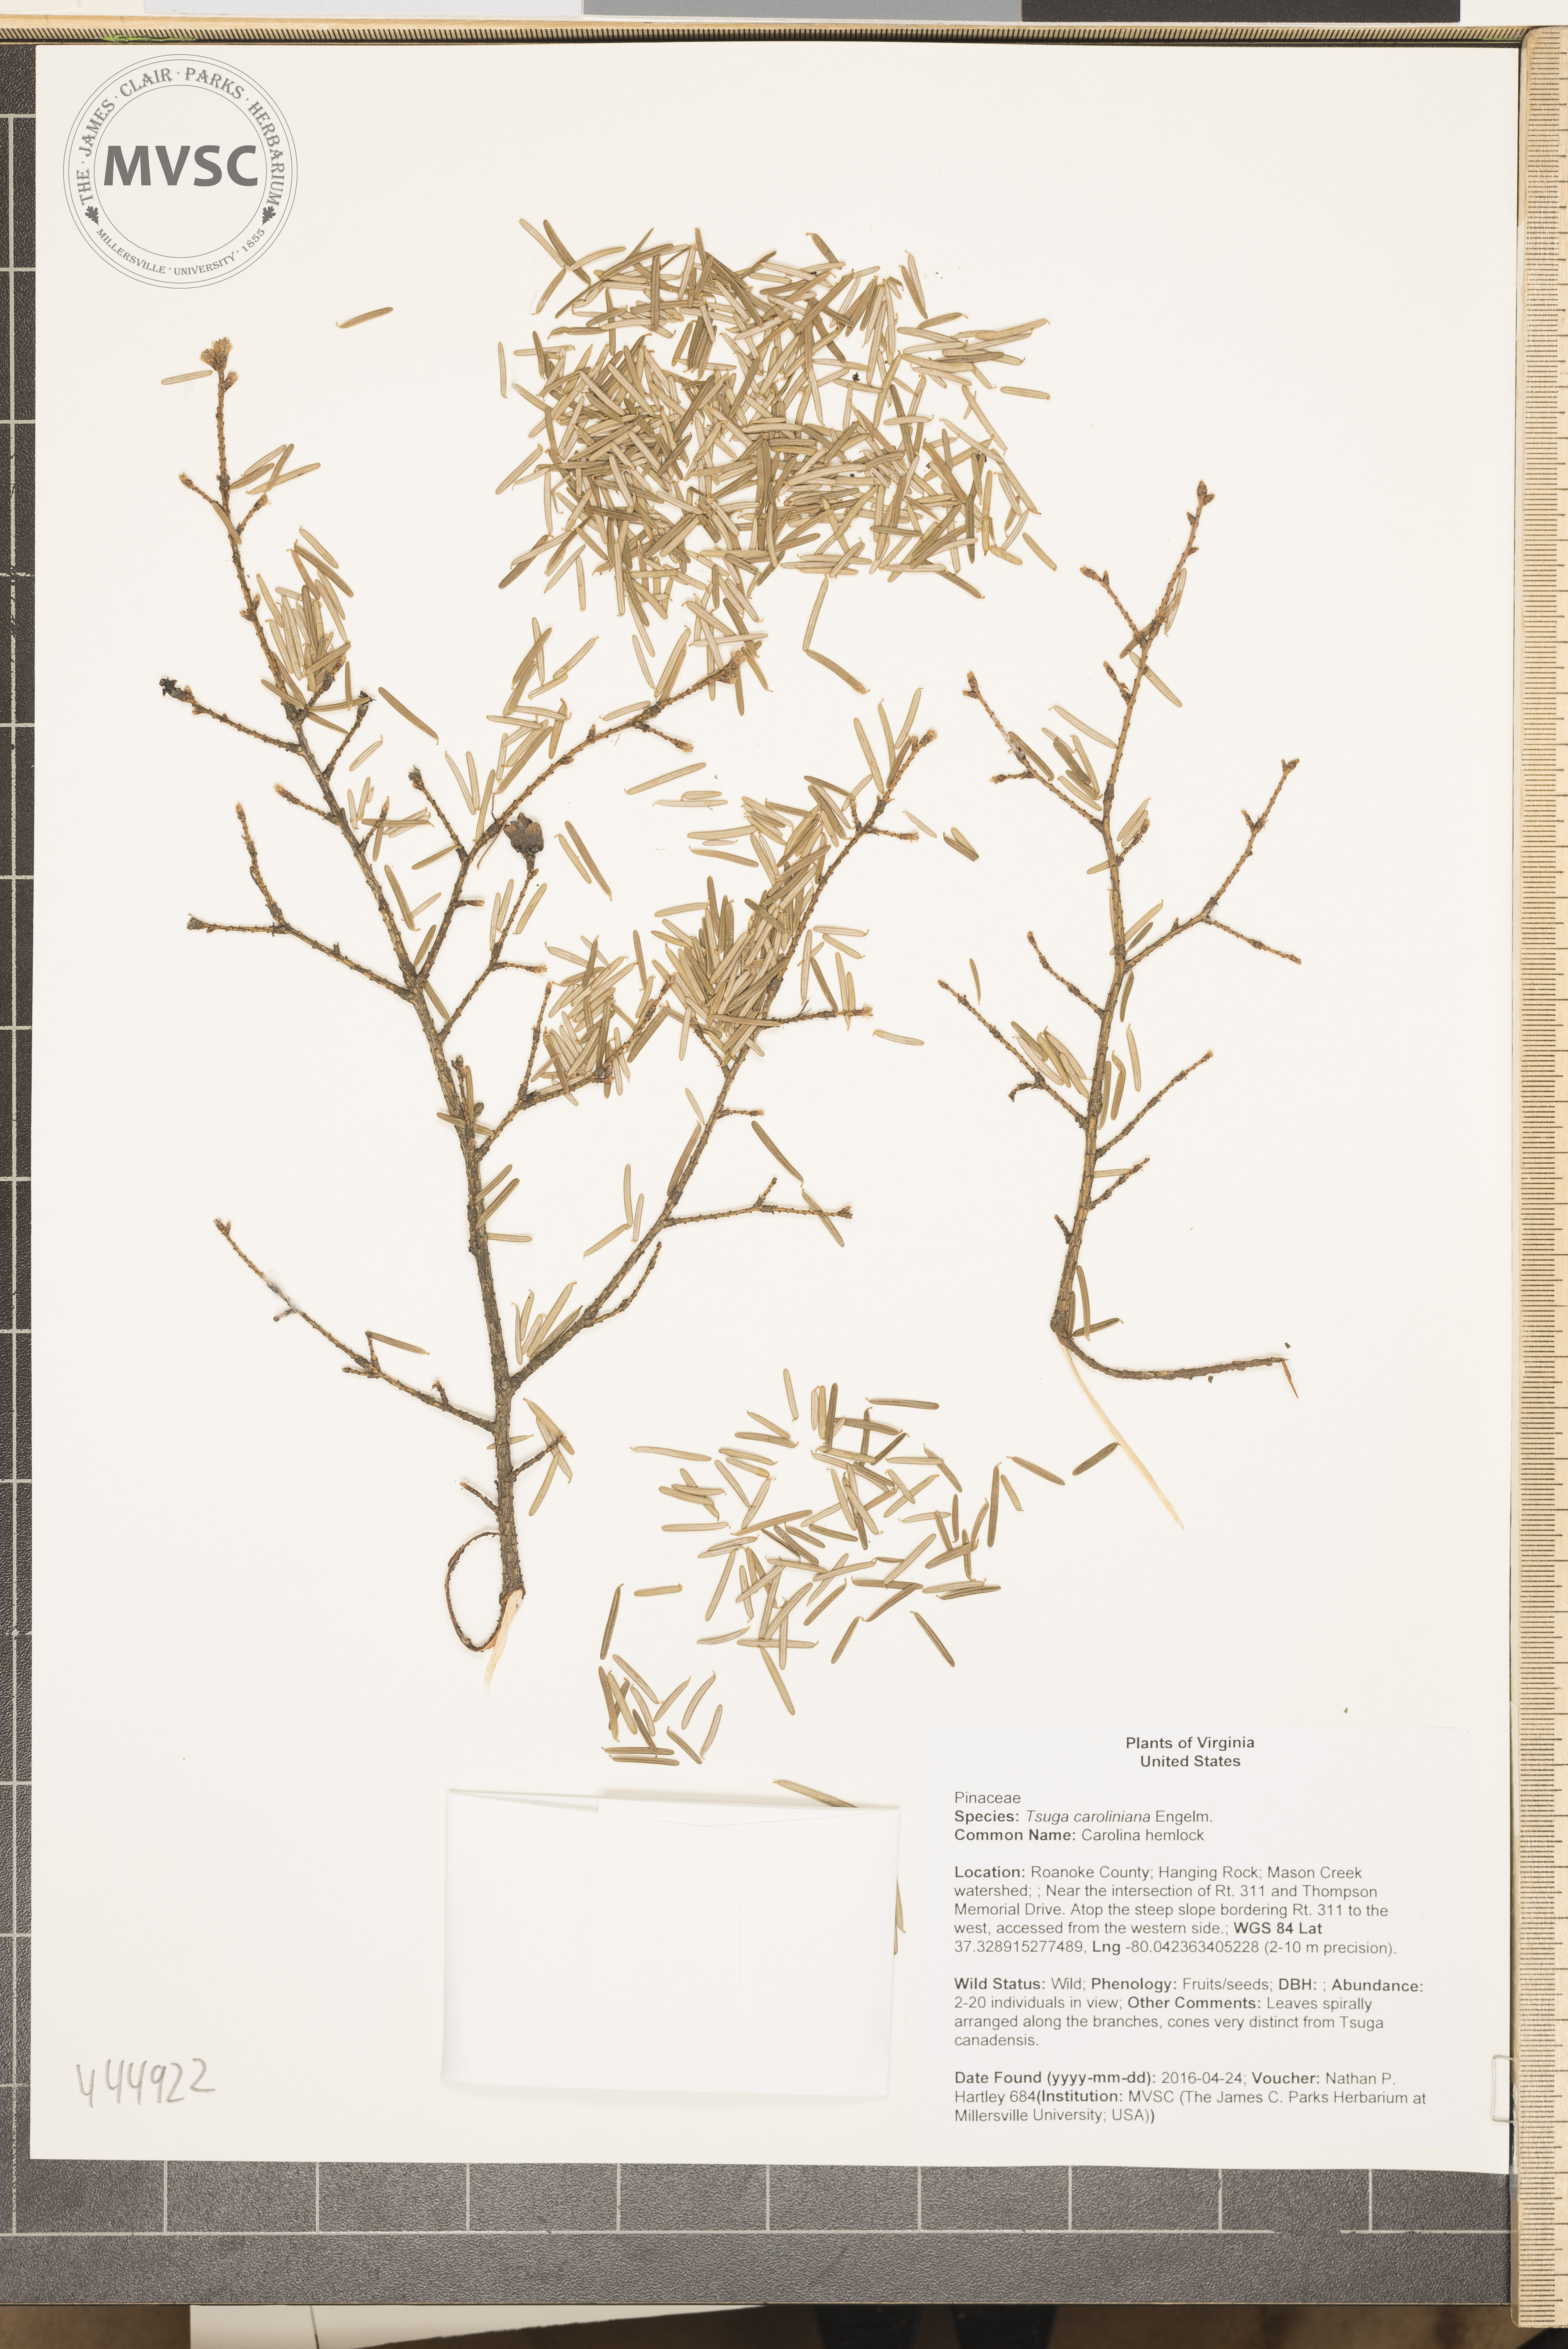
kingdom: Plantae
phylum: Tracheophyta
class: Pinopsida
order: Pinales
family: Pinaceae
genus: Tsuga
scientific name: Tsuga caroliniana
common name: Carolina hemlock
